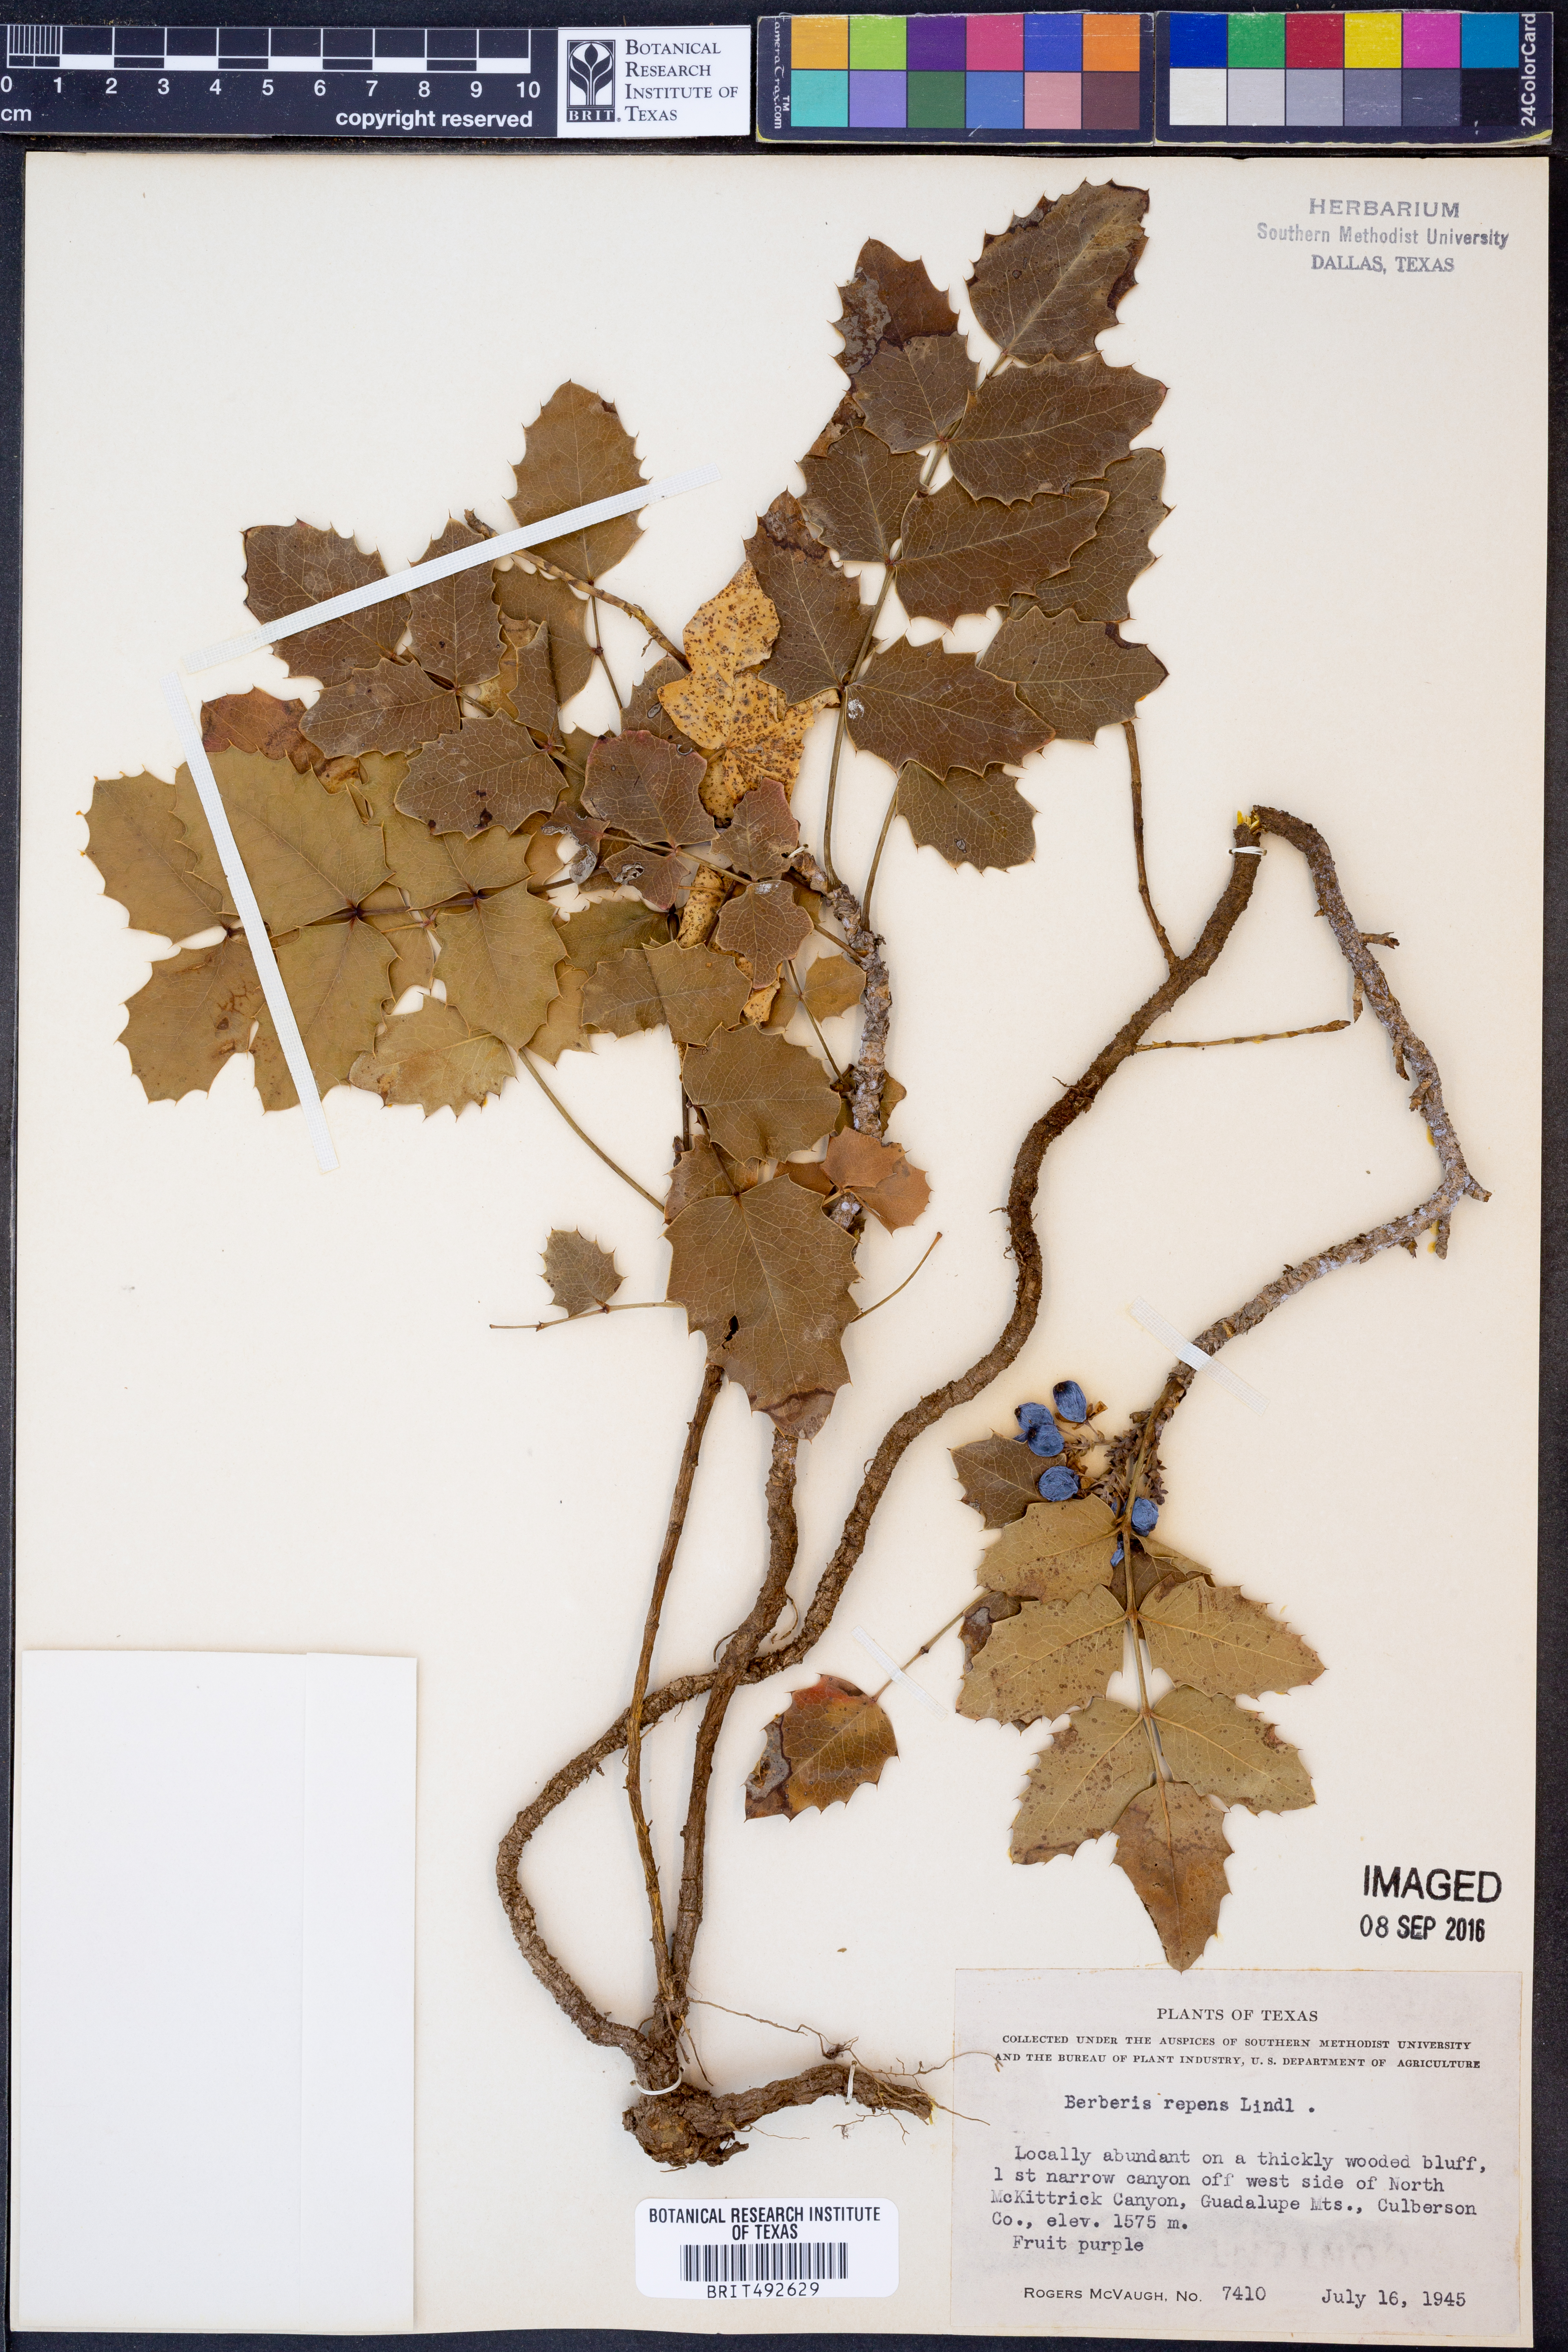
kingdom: Plantae
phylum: Tracheophyta
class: Magnoliopsida
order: Ranunculales
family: Berberidaceae
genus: Mahonia
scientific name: Mahonia repens
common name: Creeping oregon-grape
